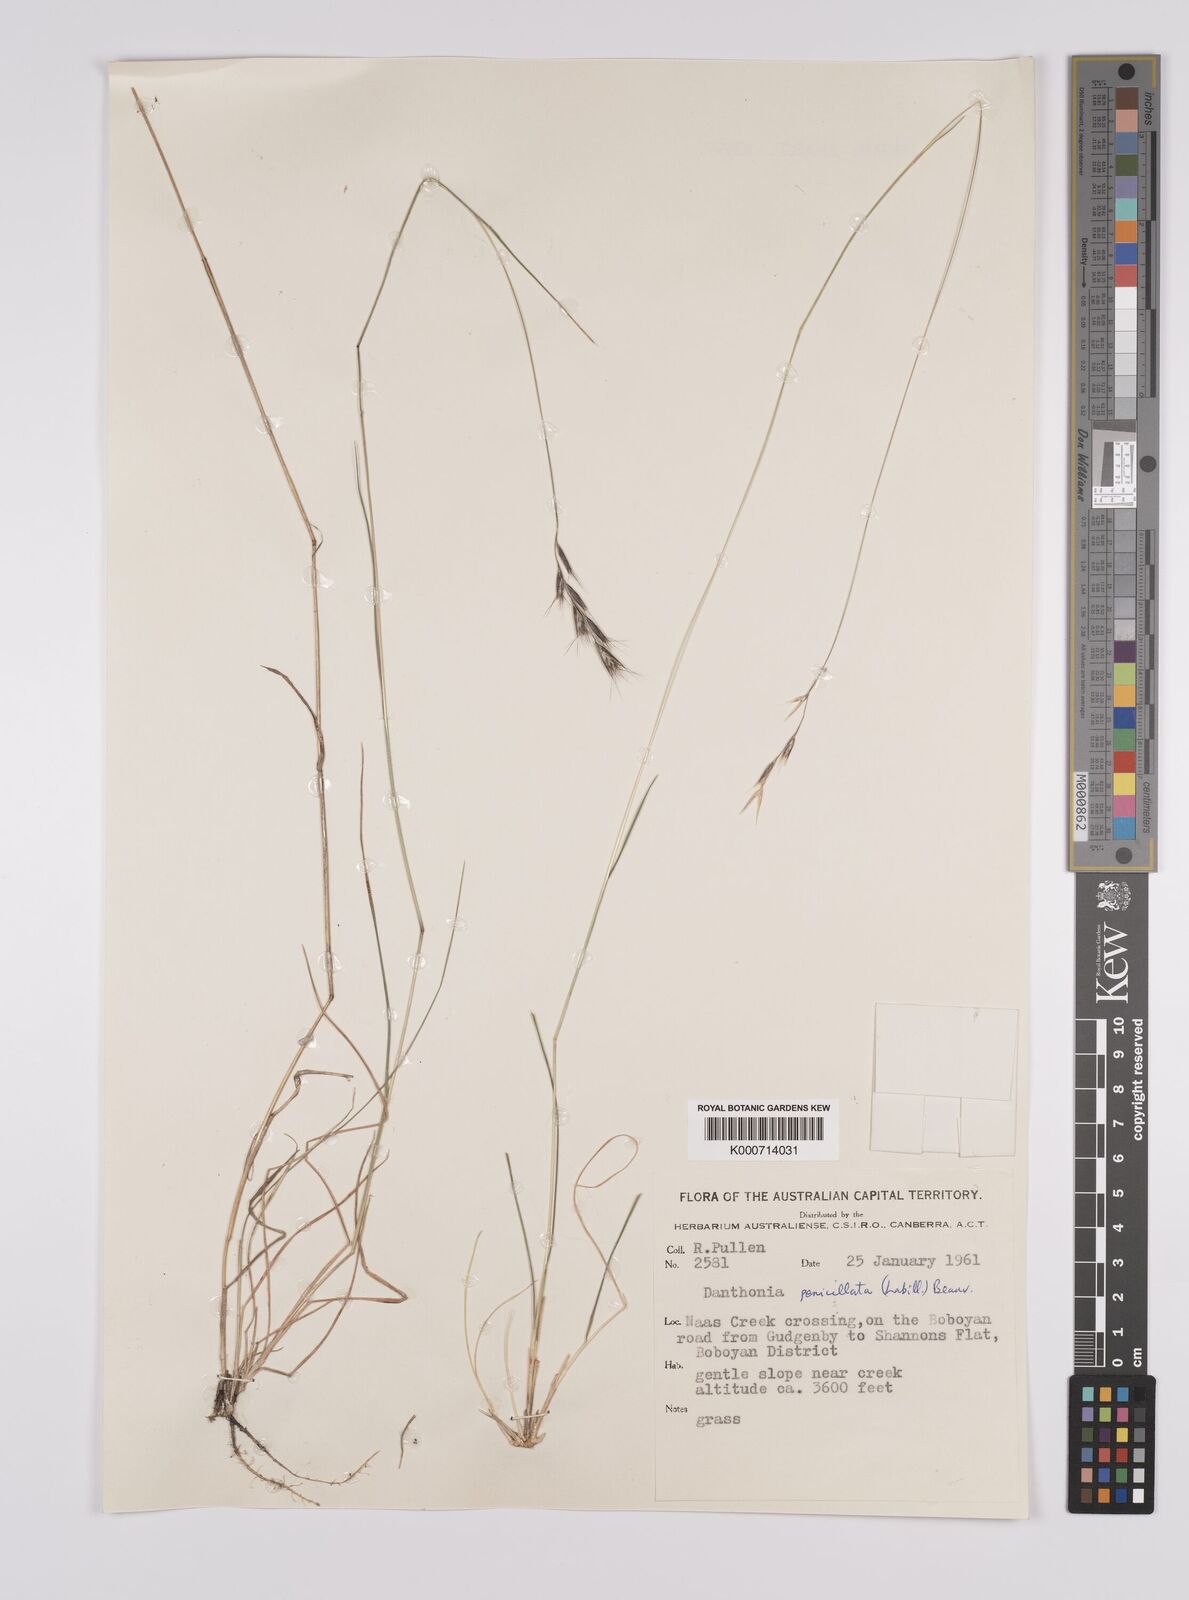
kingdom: Plantae
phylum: Tracheophyta
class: Liliopsida
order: Poales
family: Poaceae
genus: Rytidosperma
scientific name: Rytidosperma penicillatum
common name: Hairy wallaby grass
